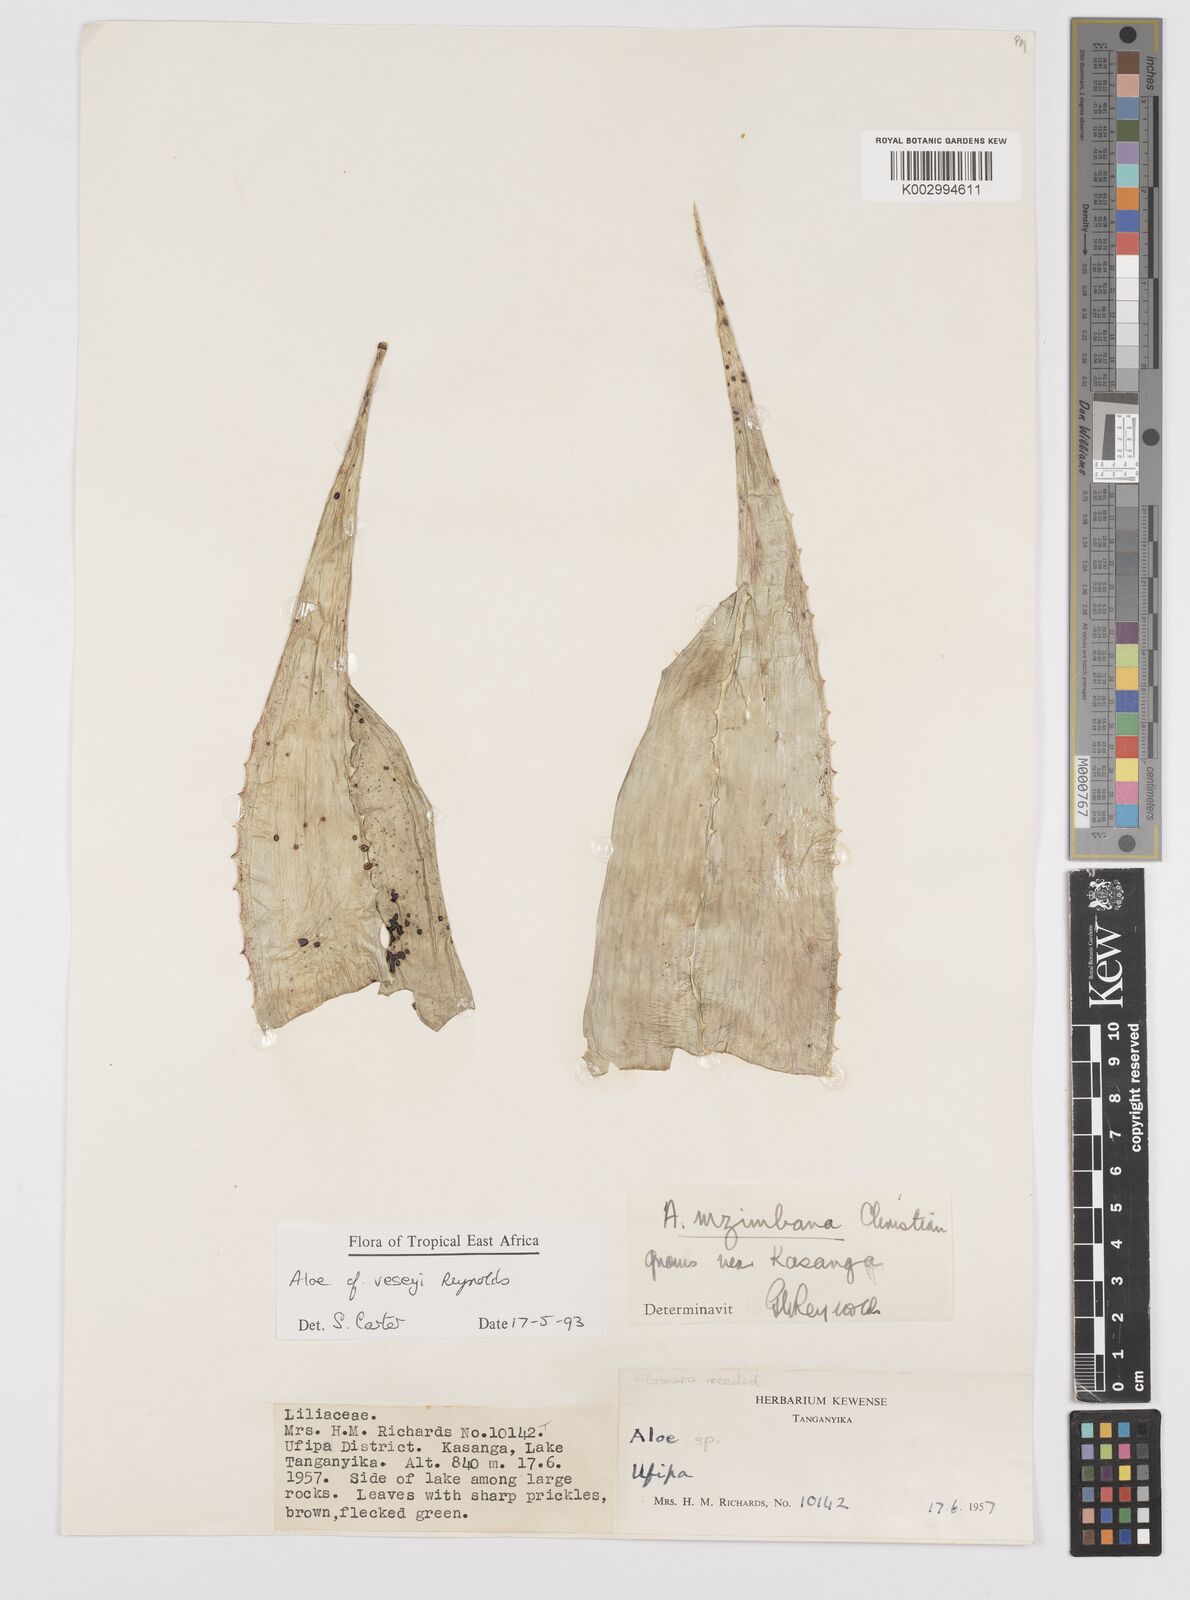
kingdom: Plantae
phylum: Tracheophyta
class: Liliopsida
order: Asparagales
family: Asphodelaceae
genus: Aloe
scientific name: Aloe veseyi
